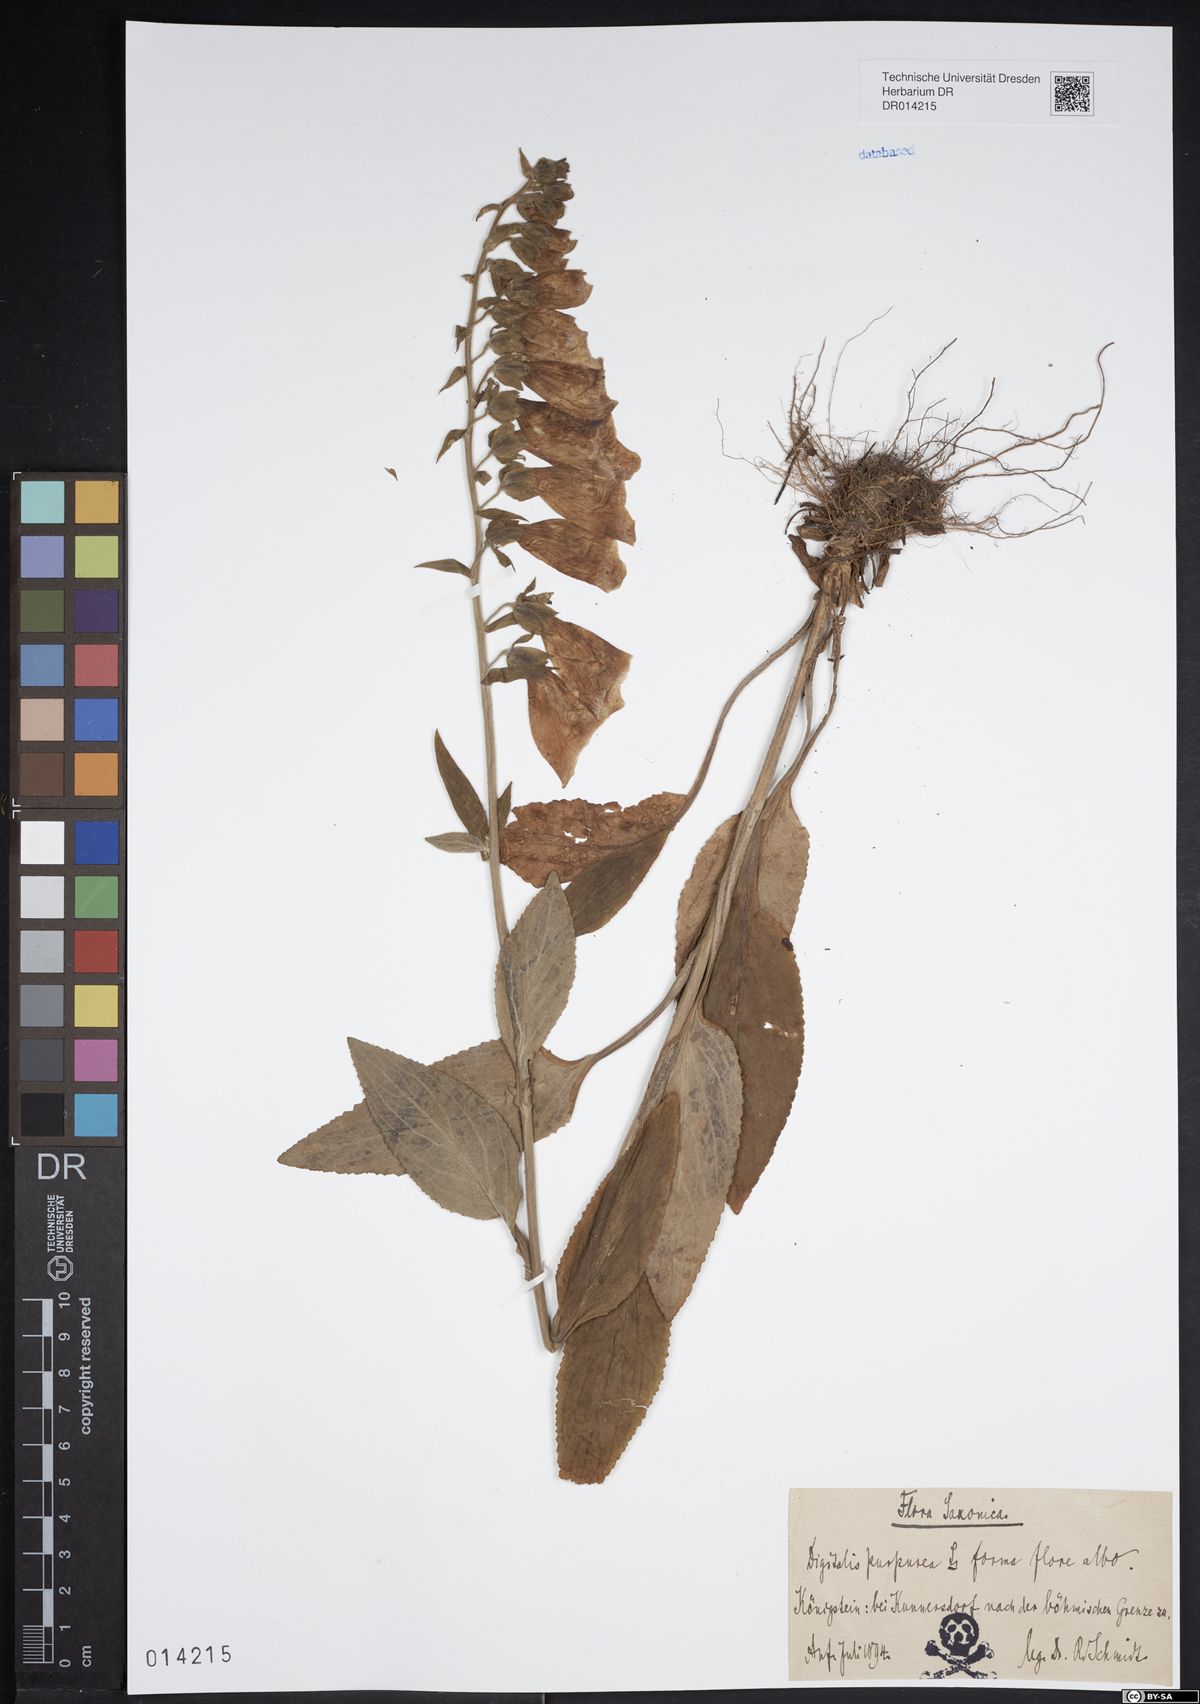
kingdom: Plantae
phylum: Tracheophyta
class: Magnoliopsida
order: Lamiales
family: Plantaginaceae
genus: Digitalis
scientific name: Digitalis purpurea
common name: Foxglove
